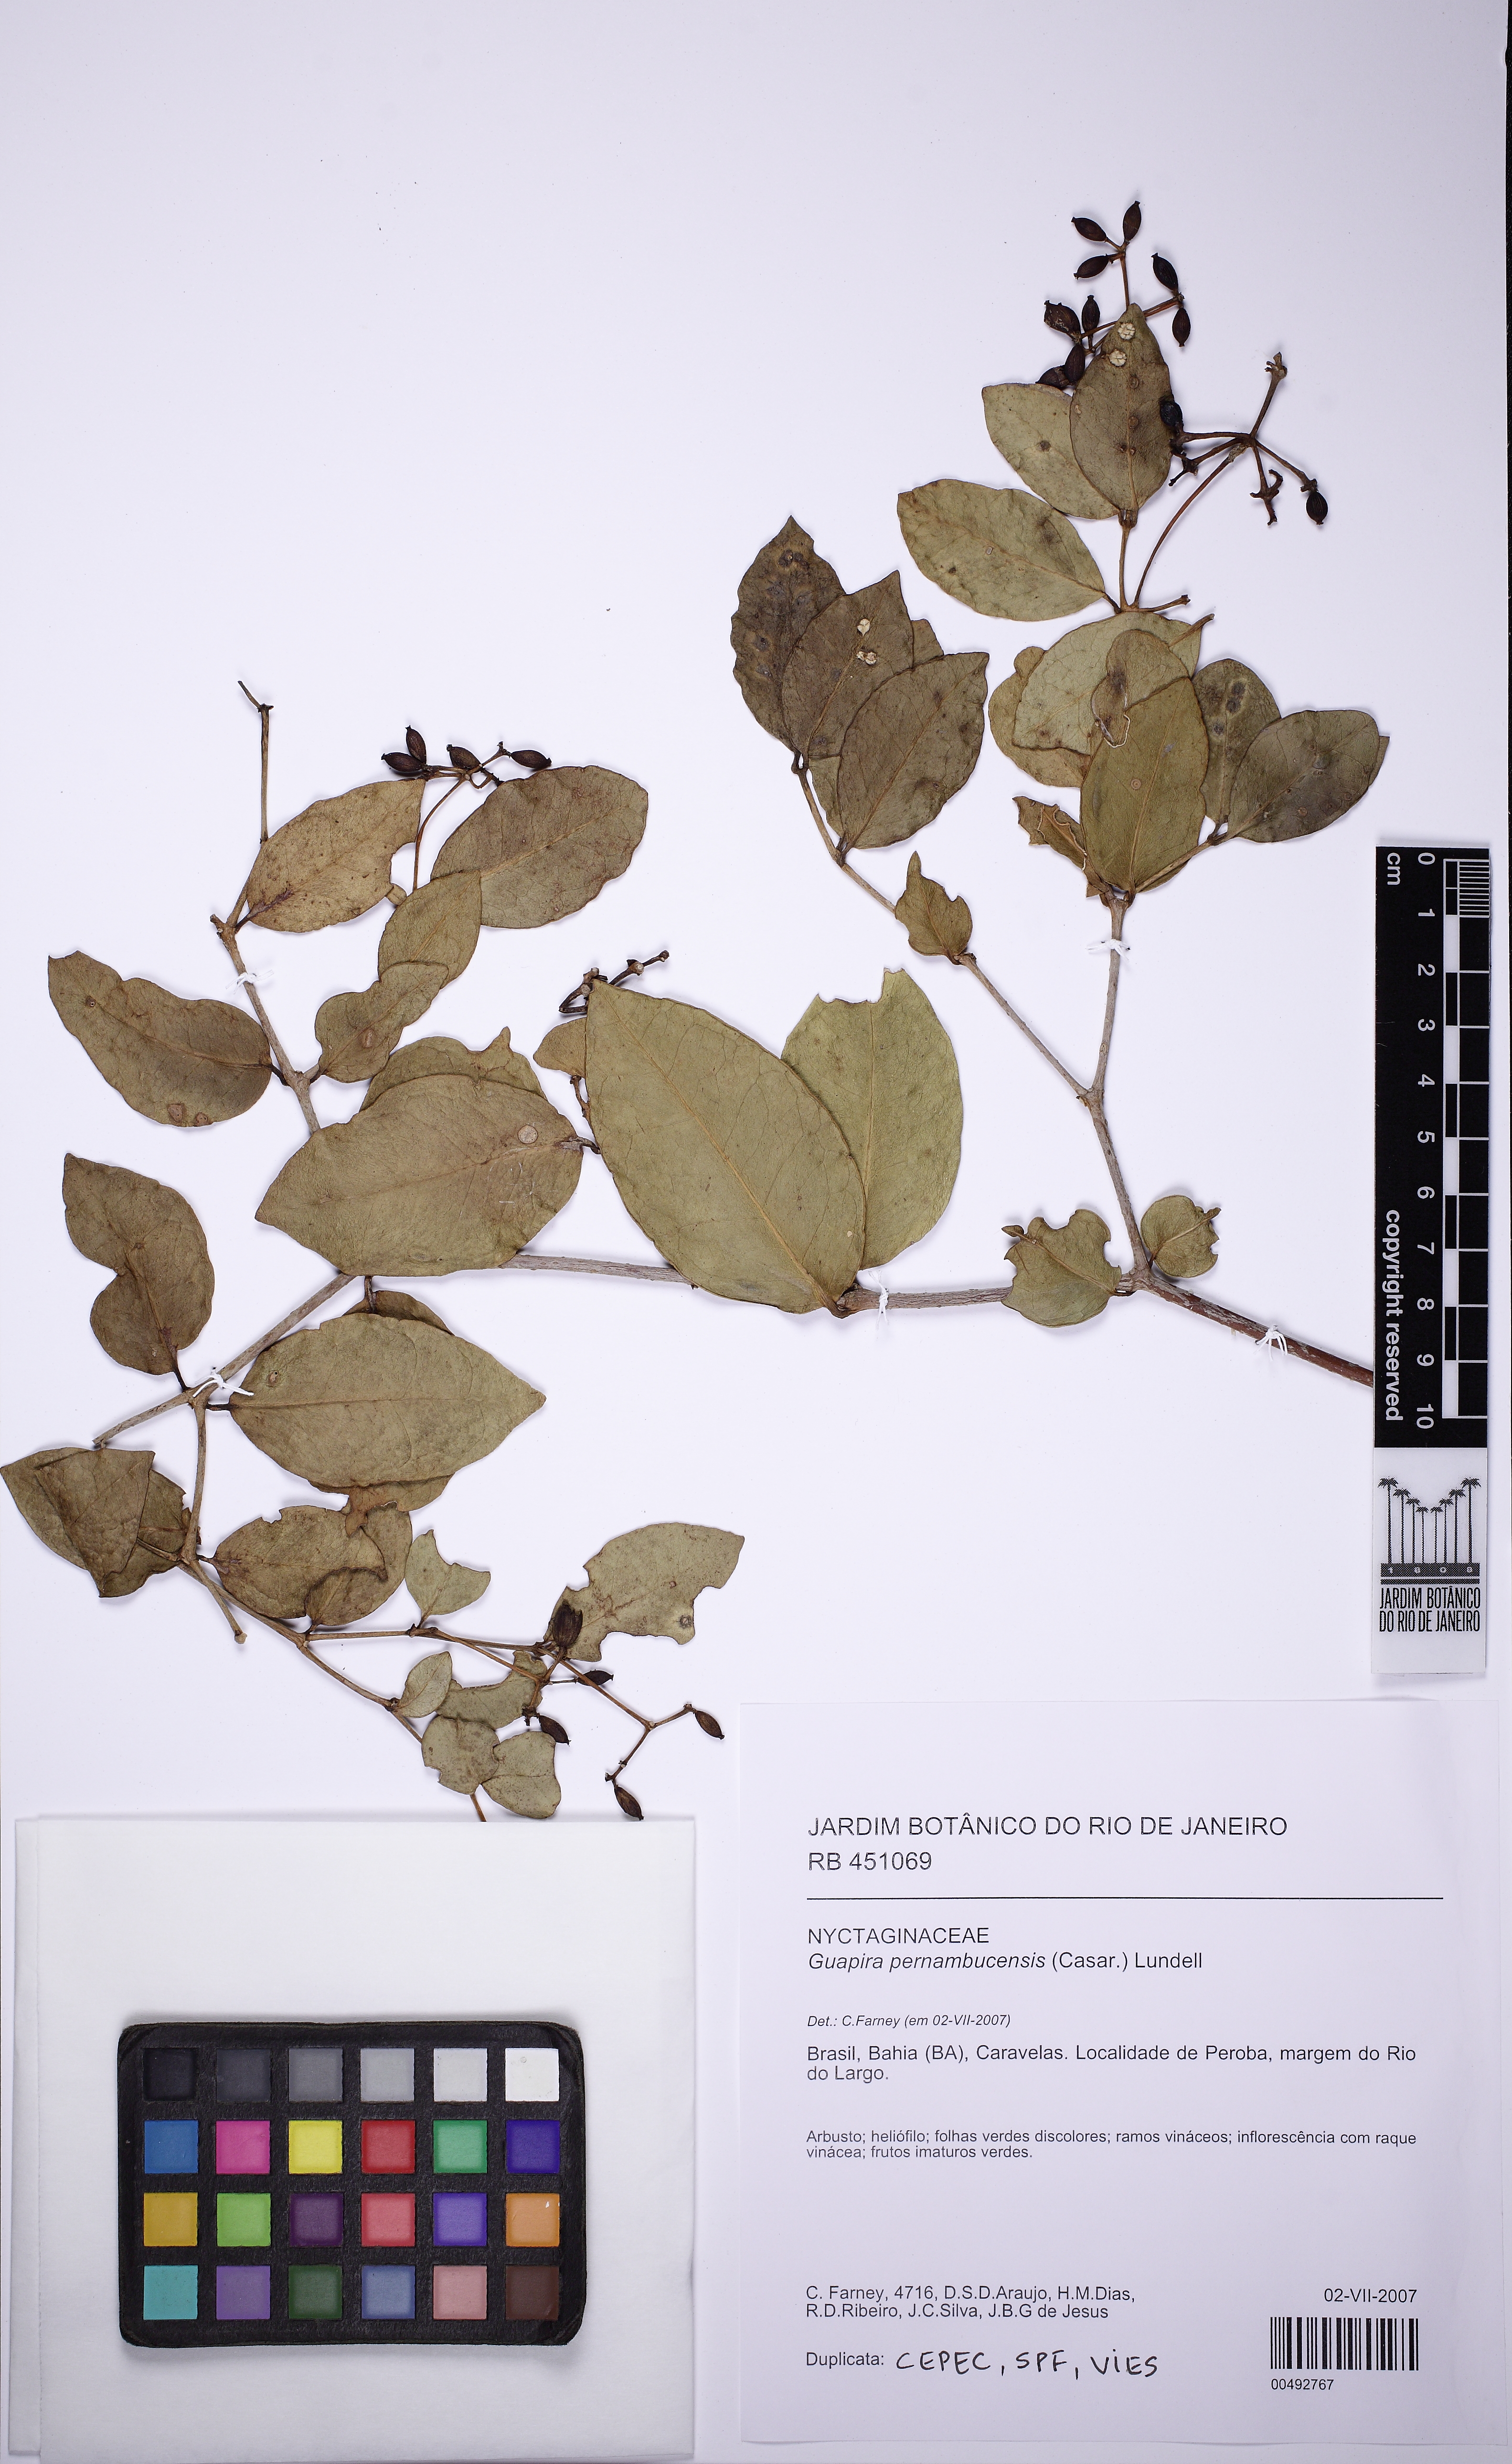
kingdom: Plantae
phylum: Tracheophyta
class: Magnoliopsida
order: Caryophyllales
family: Nyctaginaceae
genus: Guapira
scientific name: Guapira pernambucensis
